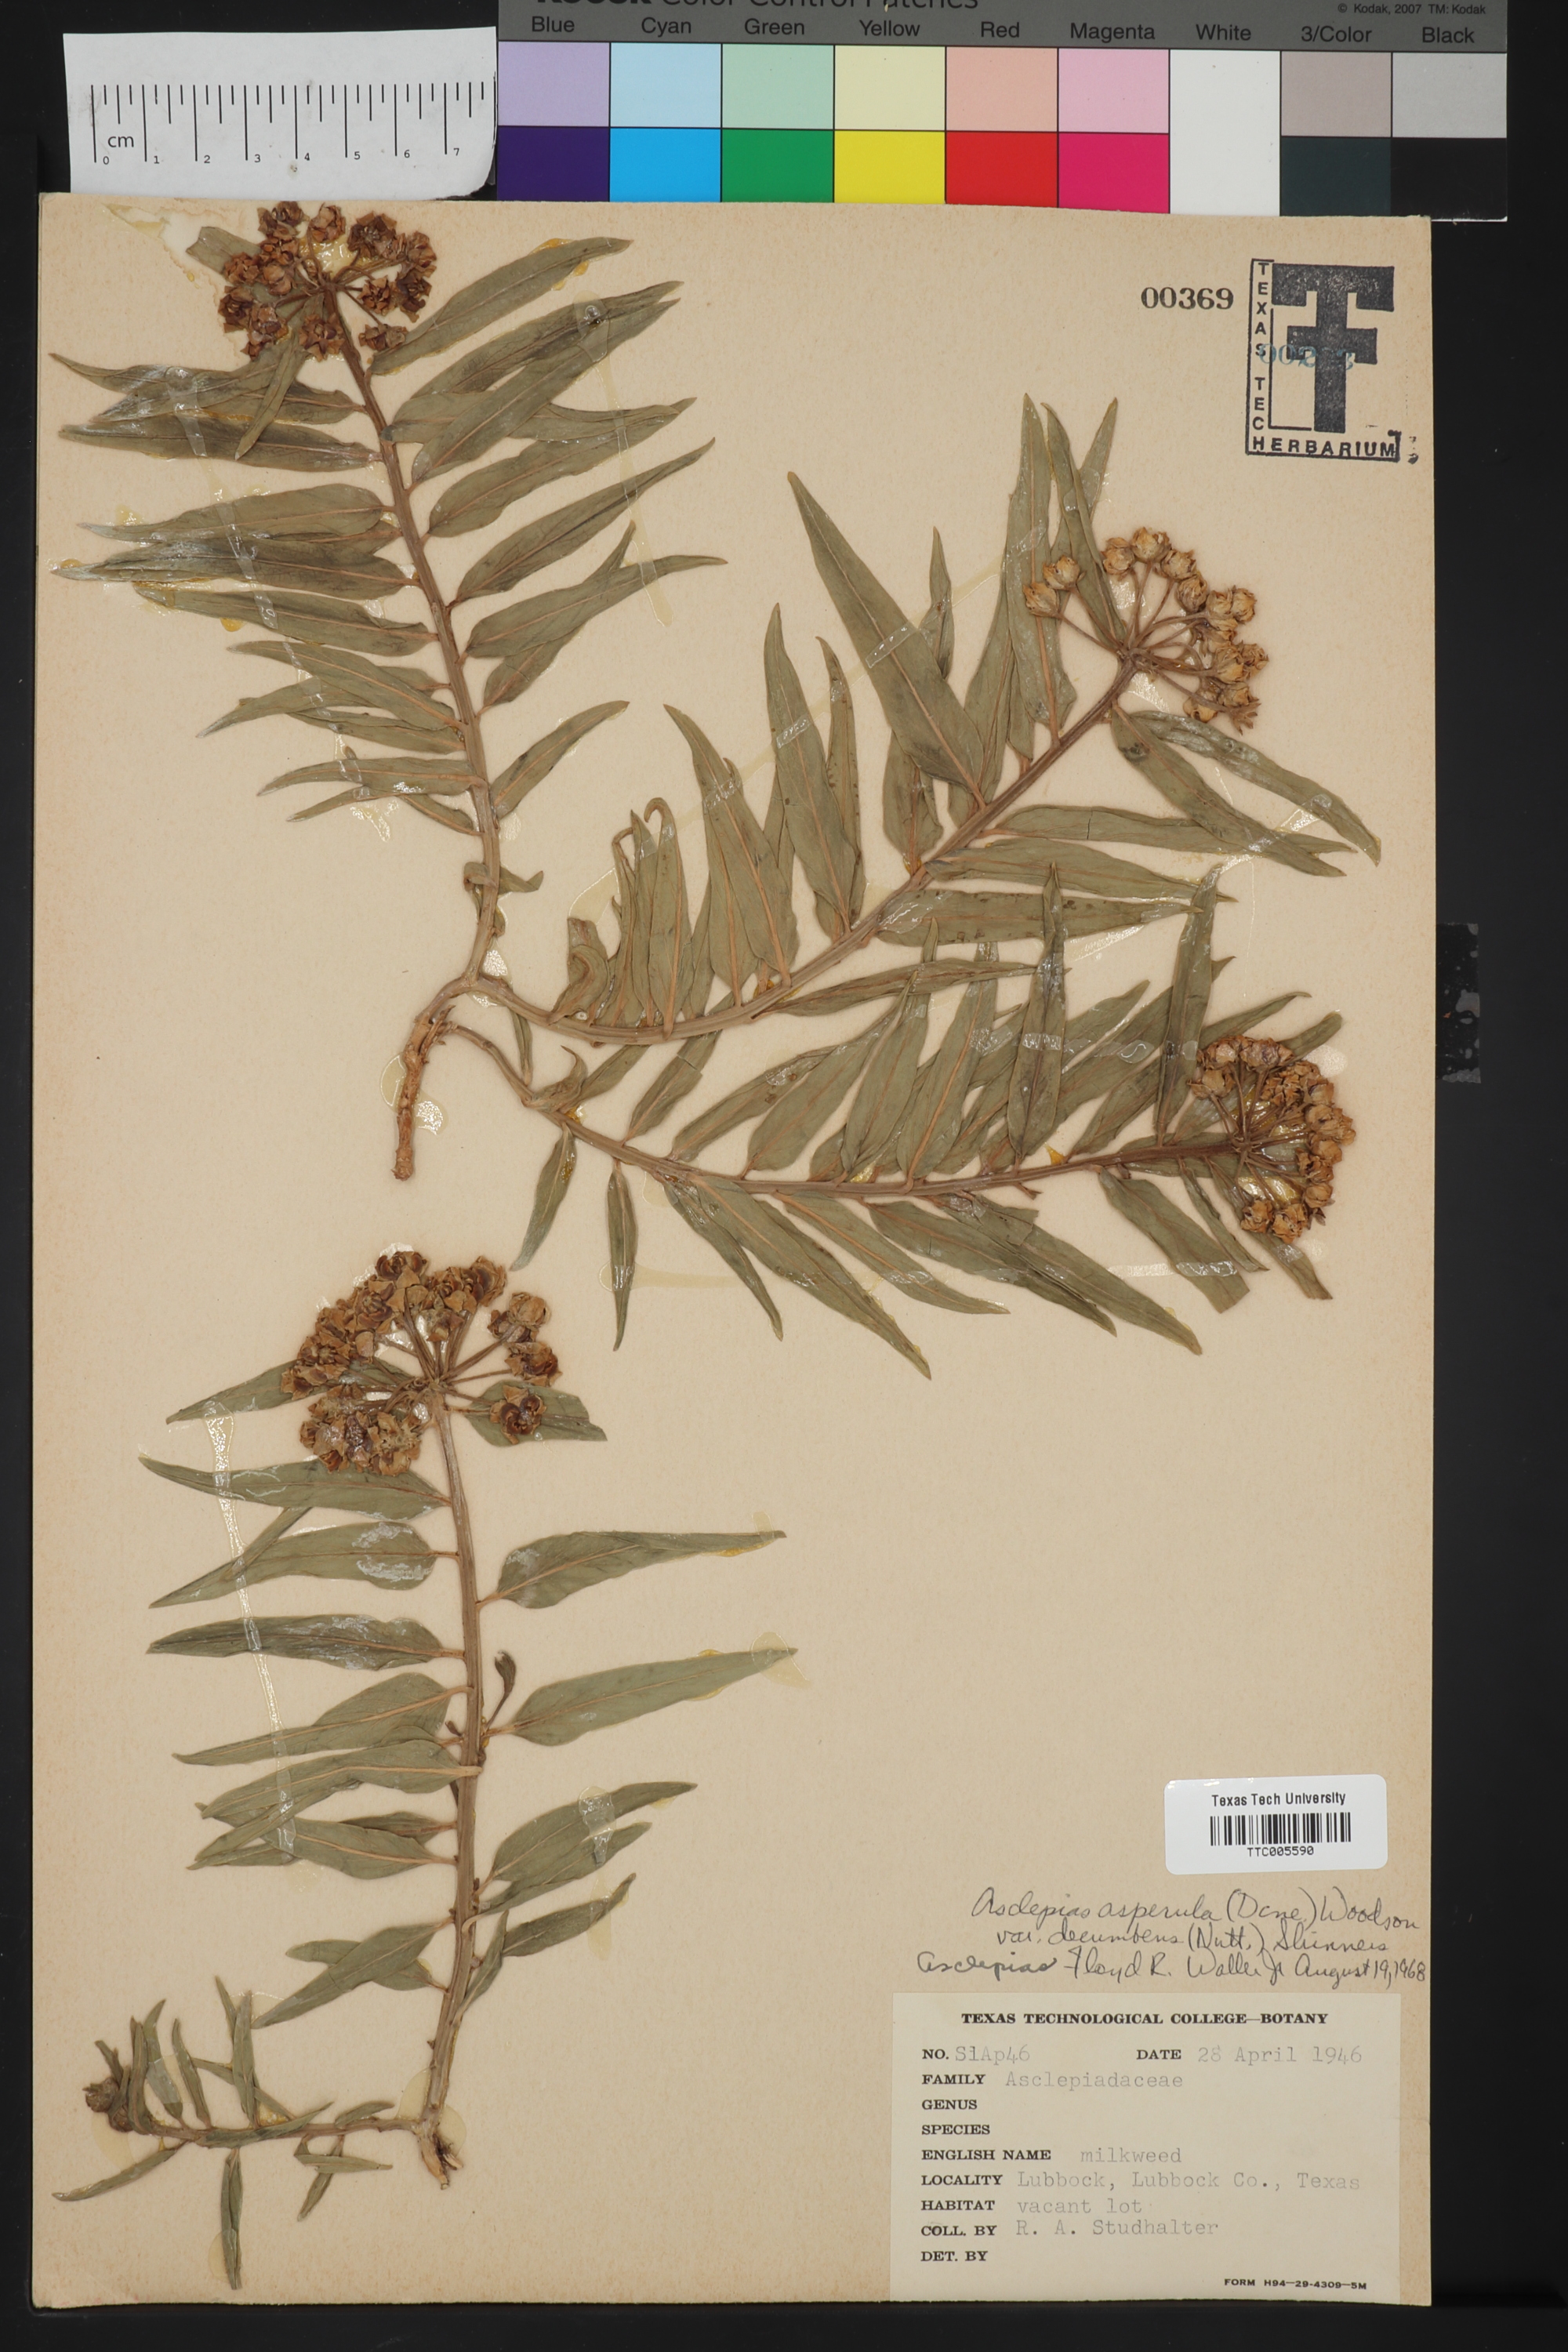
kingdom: Plantae
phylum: Tracheophyta
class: Magnoliopsida
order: Gentianales
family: Apocynaceae
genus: Asclepias
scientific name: Asclepias asperula
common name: Antelope horns
